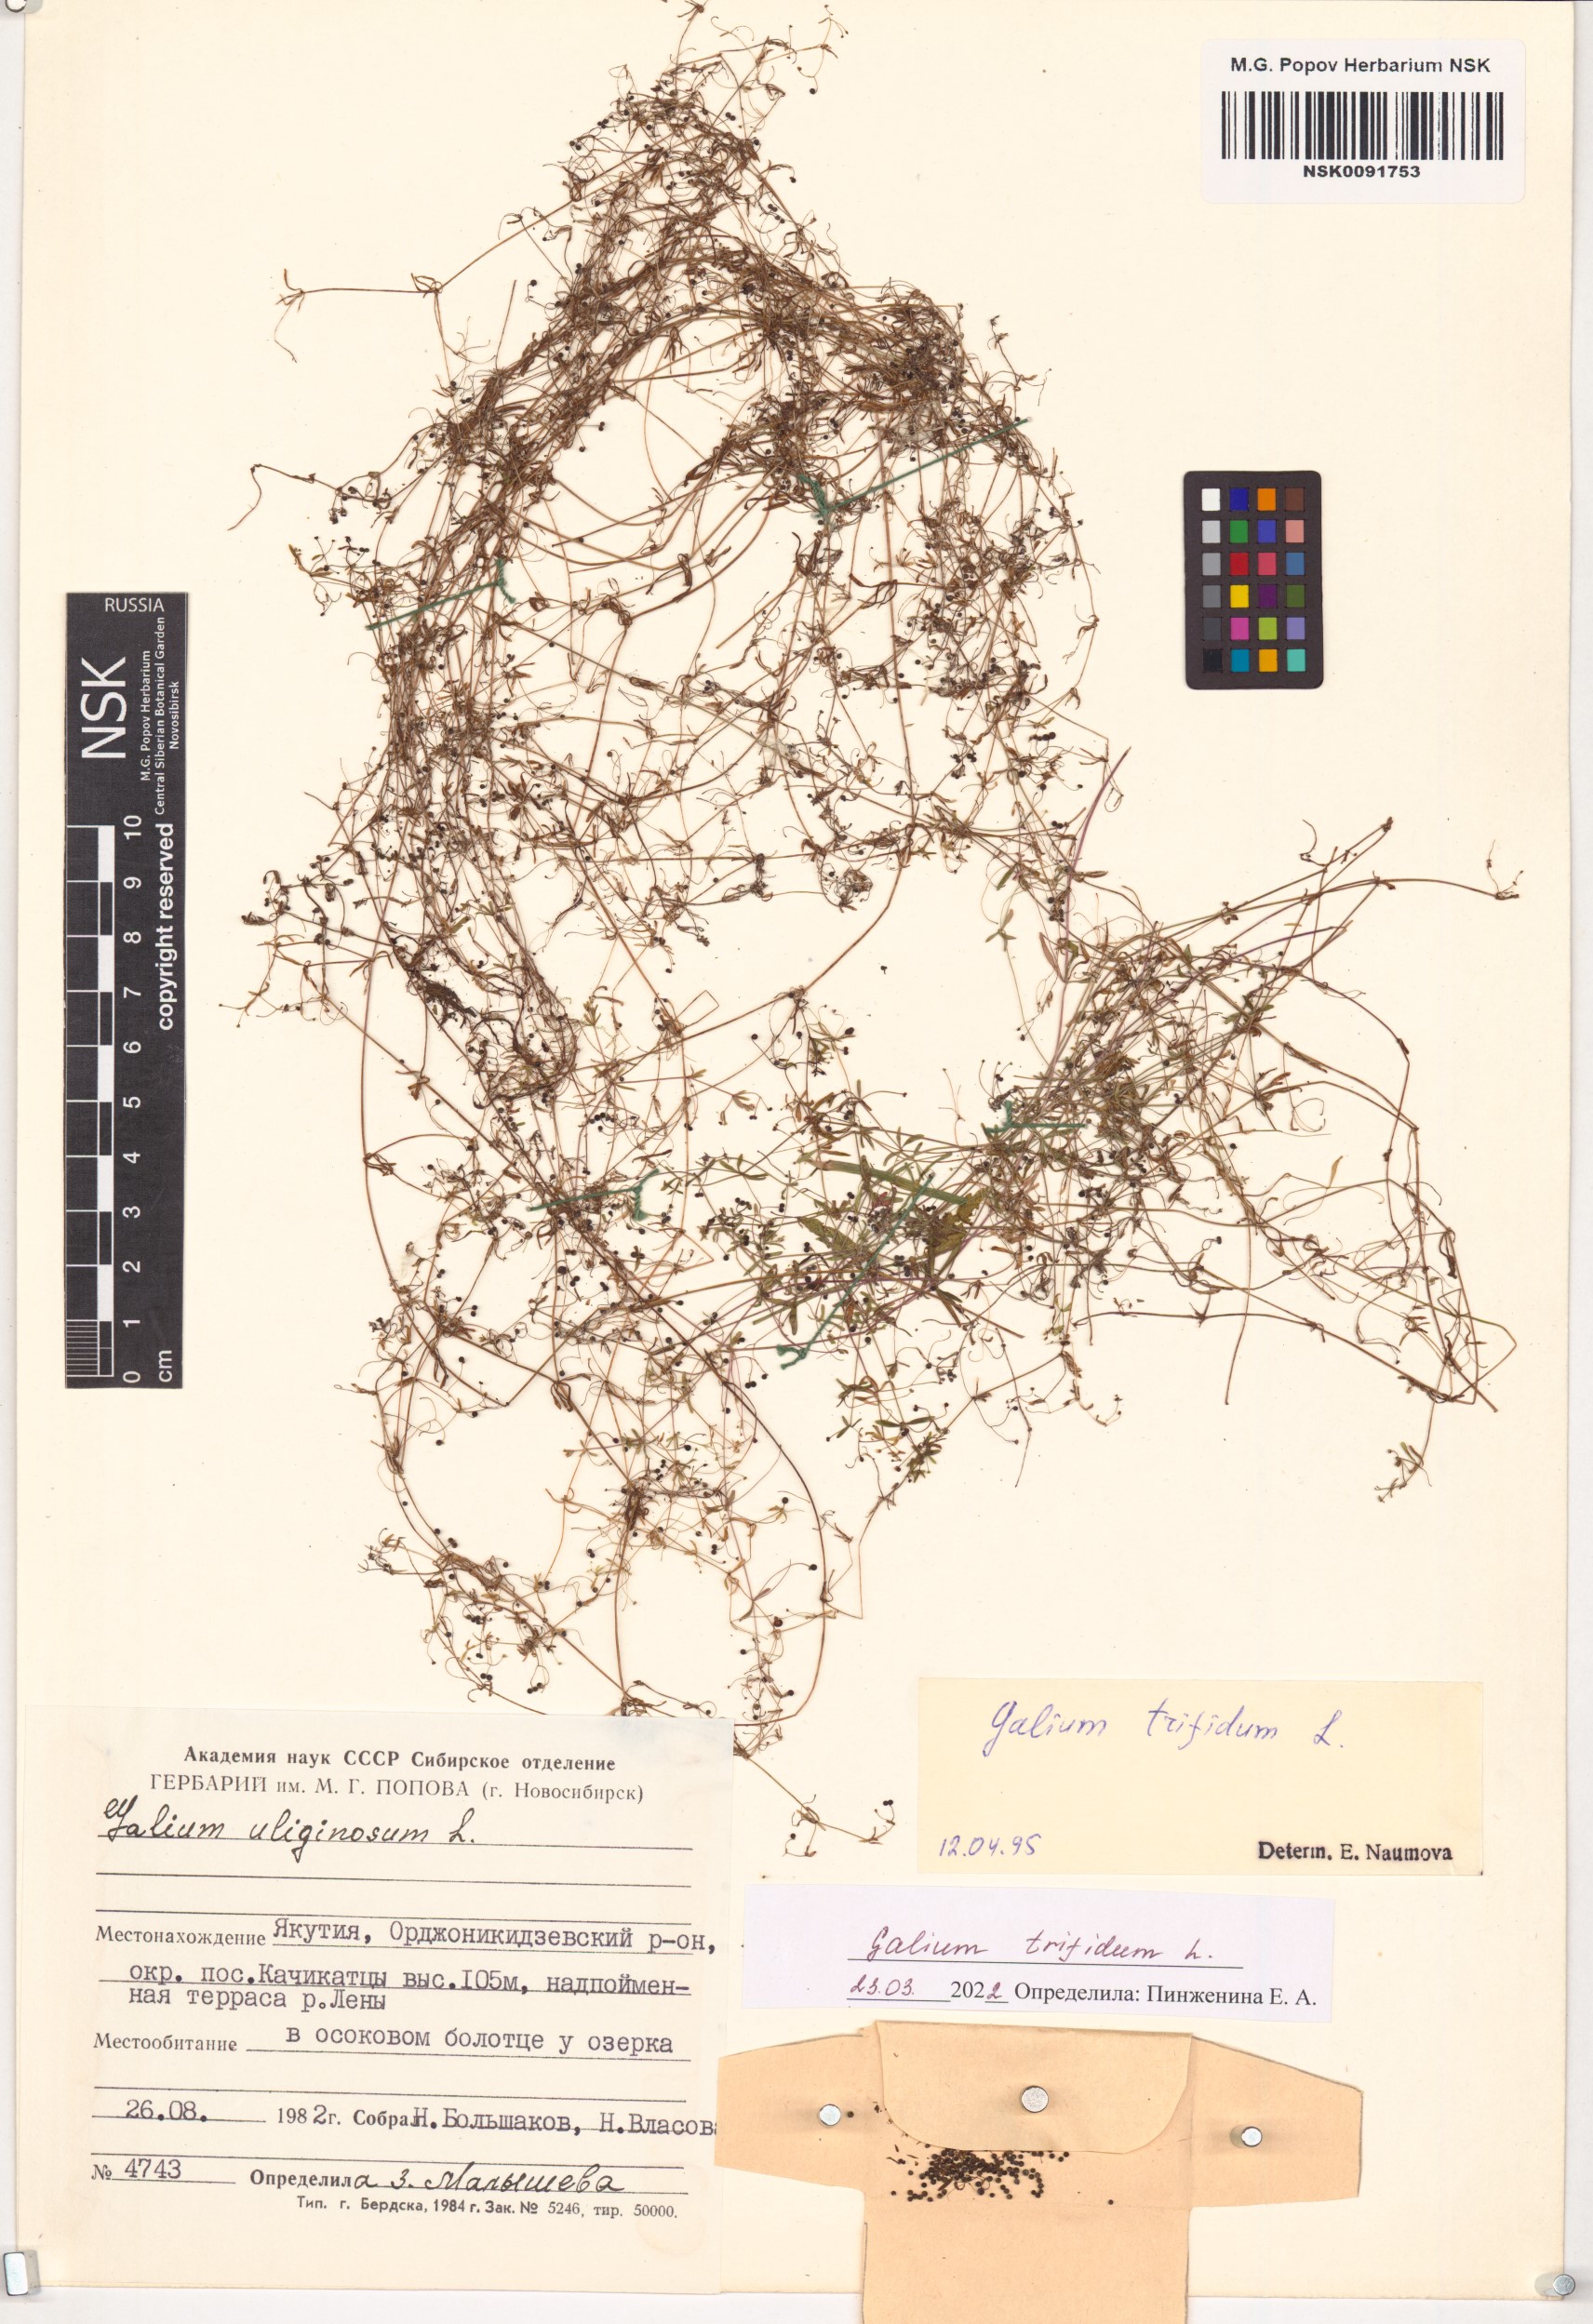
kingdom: Plantae
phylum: Tracheophyta
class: Magnoliopsida
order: Gentianales
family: Rubiaceae
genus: Galium
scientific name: Galium trifidum
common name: Small bedstraw
